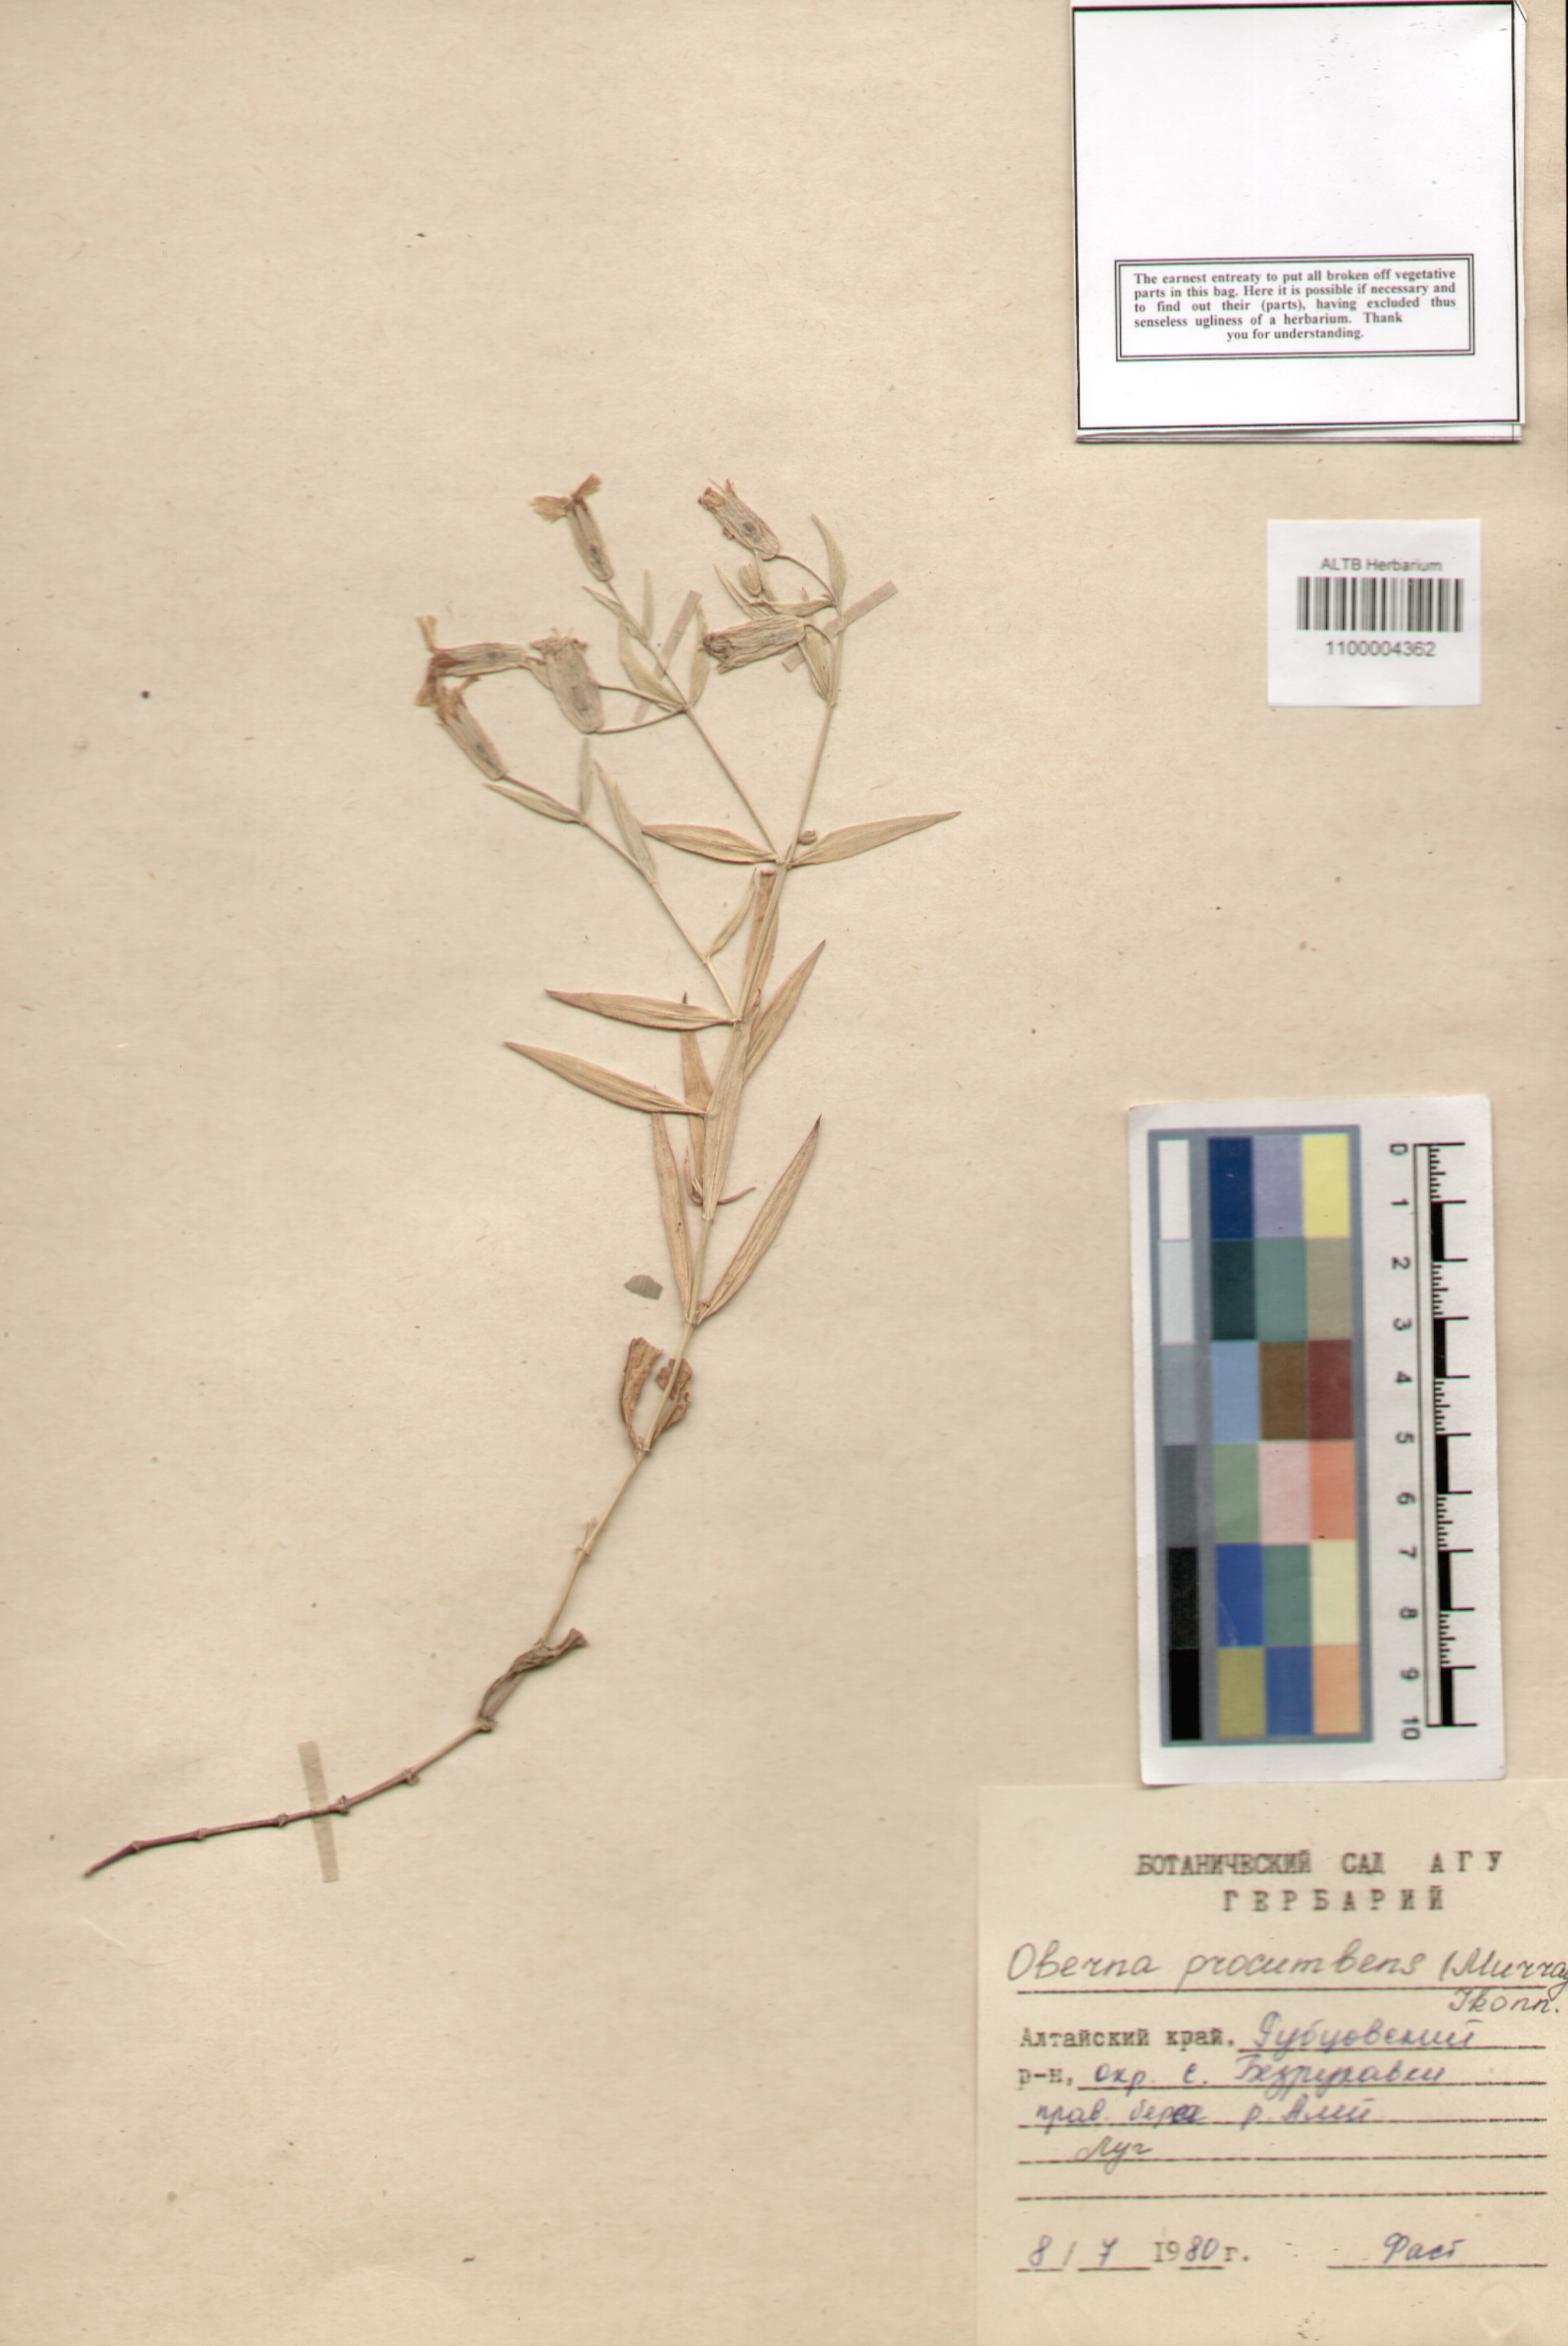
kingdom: Plantae
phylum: Tracheophyta
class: Magnoliopsida
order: Caryophyllales
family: Caryophyllaceae
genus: Silene
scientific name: Silene procumbens
